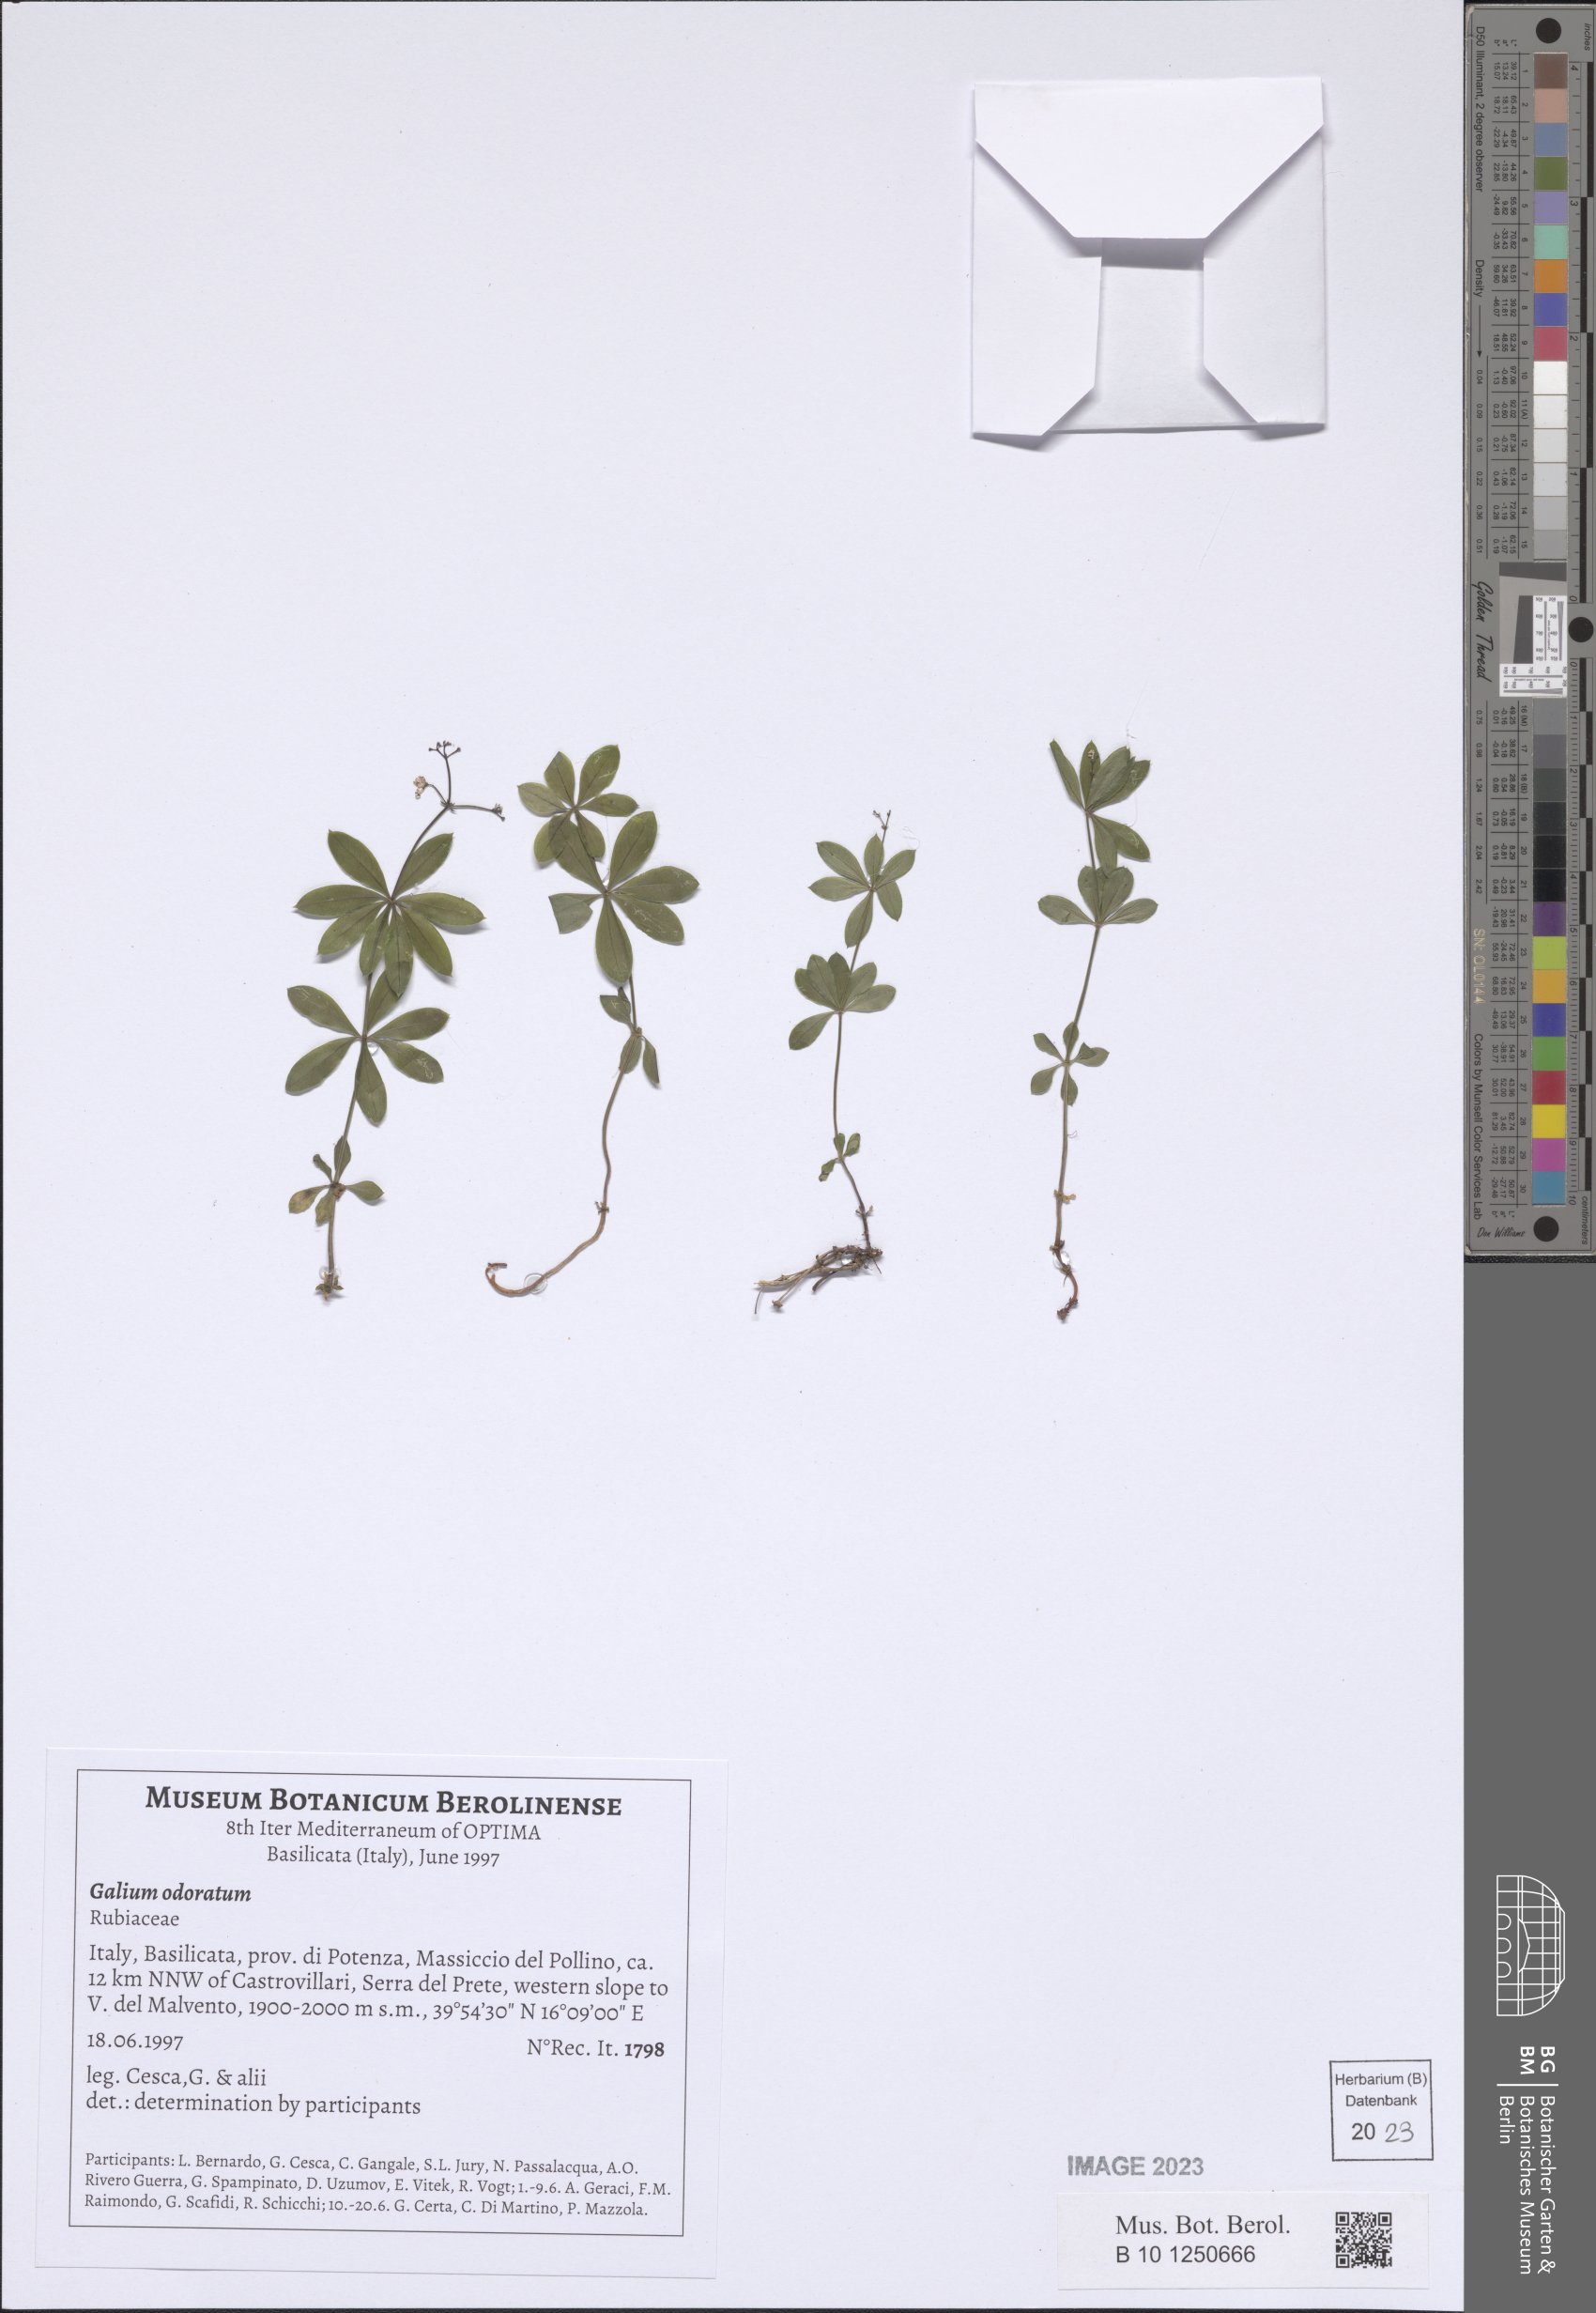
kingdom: Plantae
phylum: Tracheophyta
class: Magnoliopsida
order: Gentianales
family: Rubiaceae
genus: Galium
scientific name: Galium odoratum
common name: Sweet woodruff
